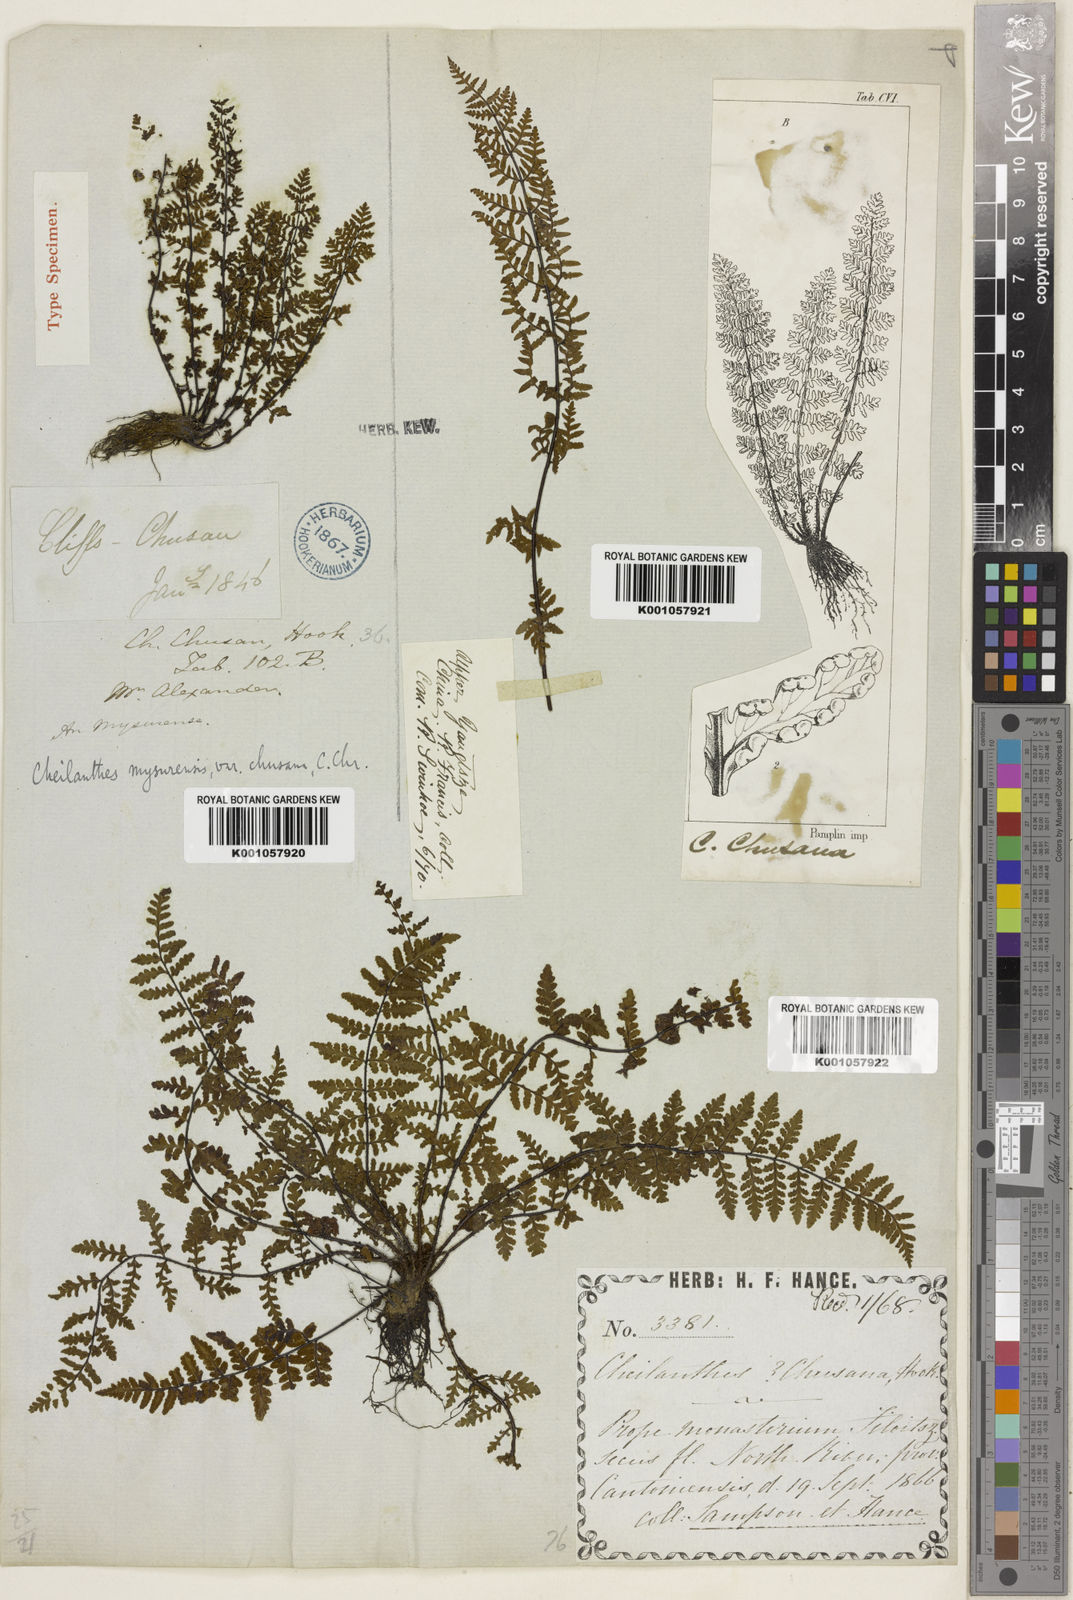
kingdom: Plantae
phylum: Tracheophyta
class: Polypodiopsida
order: Polypodiales
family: Pteridaceae
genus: Oeosporangium
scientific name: Oeosporangium chusanum
